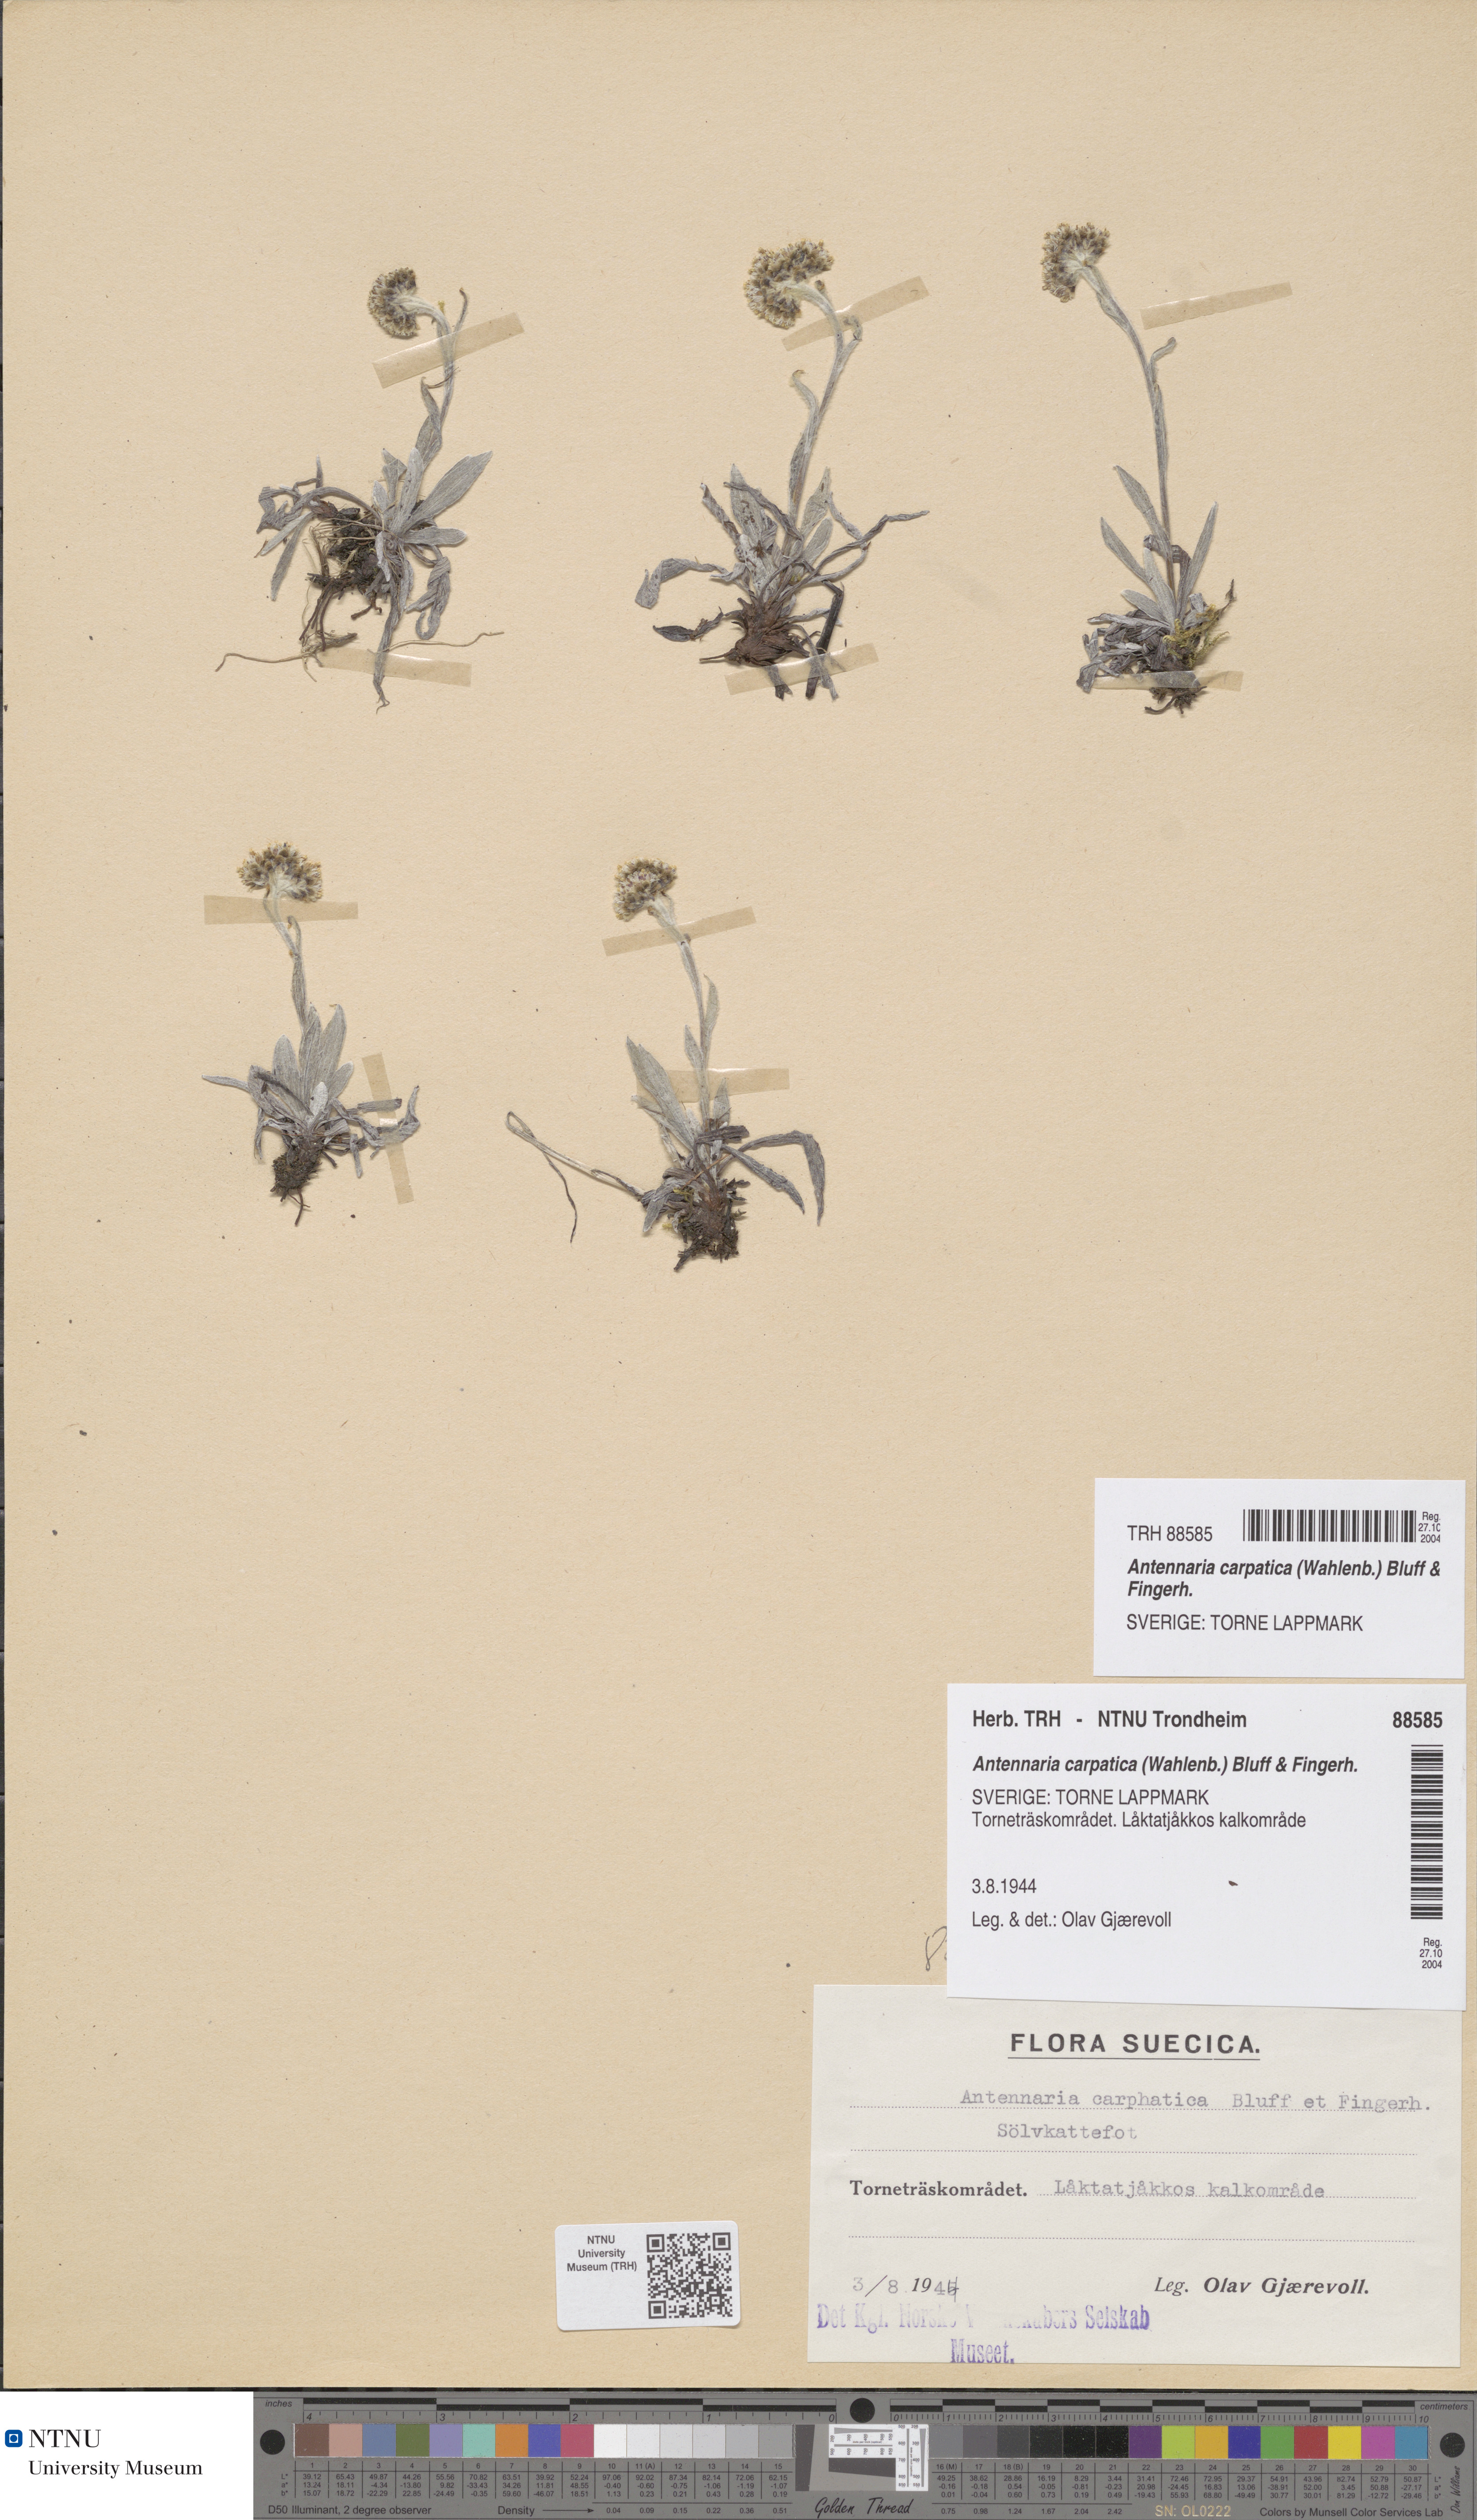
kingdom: Plantae
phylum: Tracheophyta
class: Magnoliopsida
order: Asterales
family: Asteraceae
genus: Antennaria
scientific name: Antennaria carpatica
